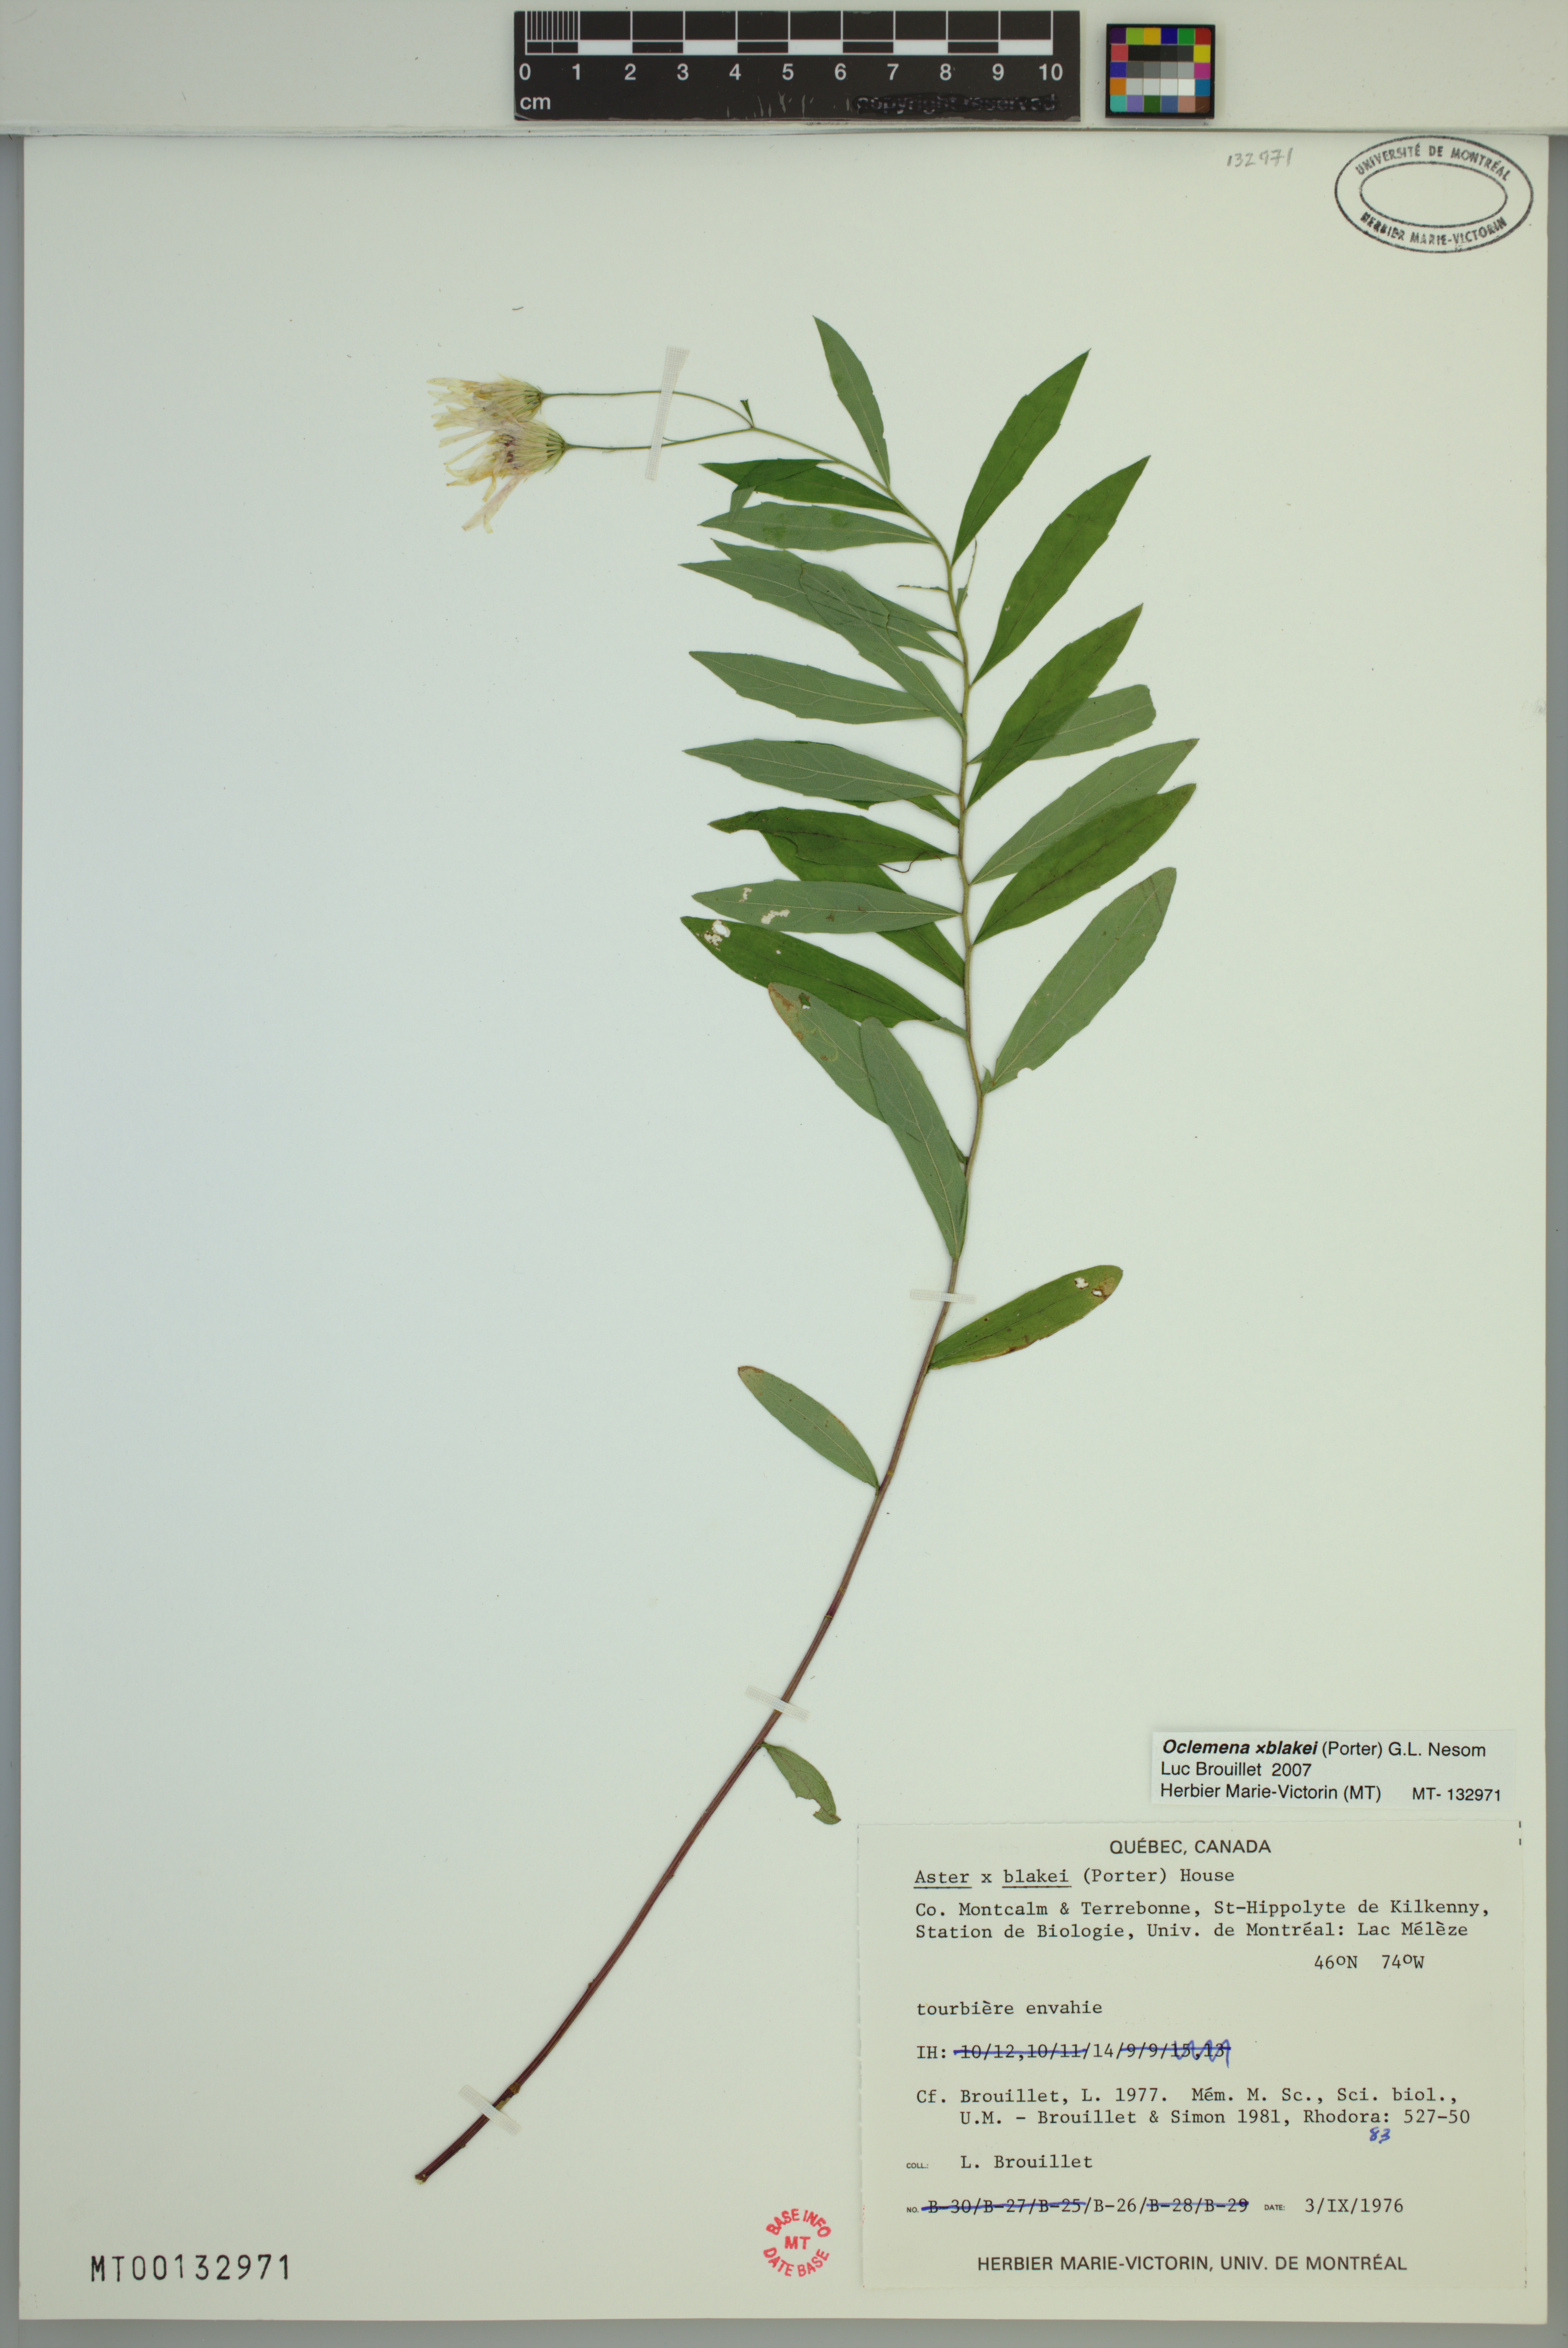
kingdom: Plantae
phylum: Tracheophyta
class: Magnoliopsida
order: Asterales
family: Asteraceae
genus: Oclemena
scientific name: Oclemena blakei
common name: Blake's aster
